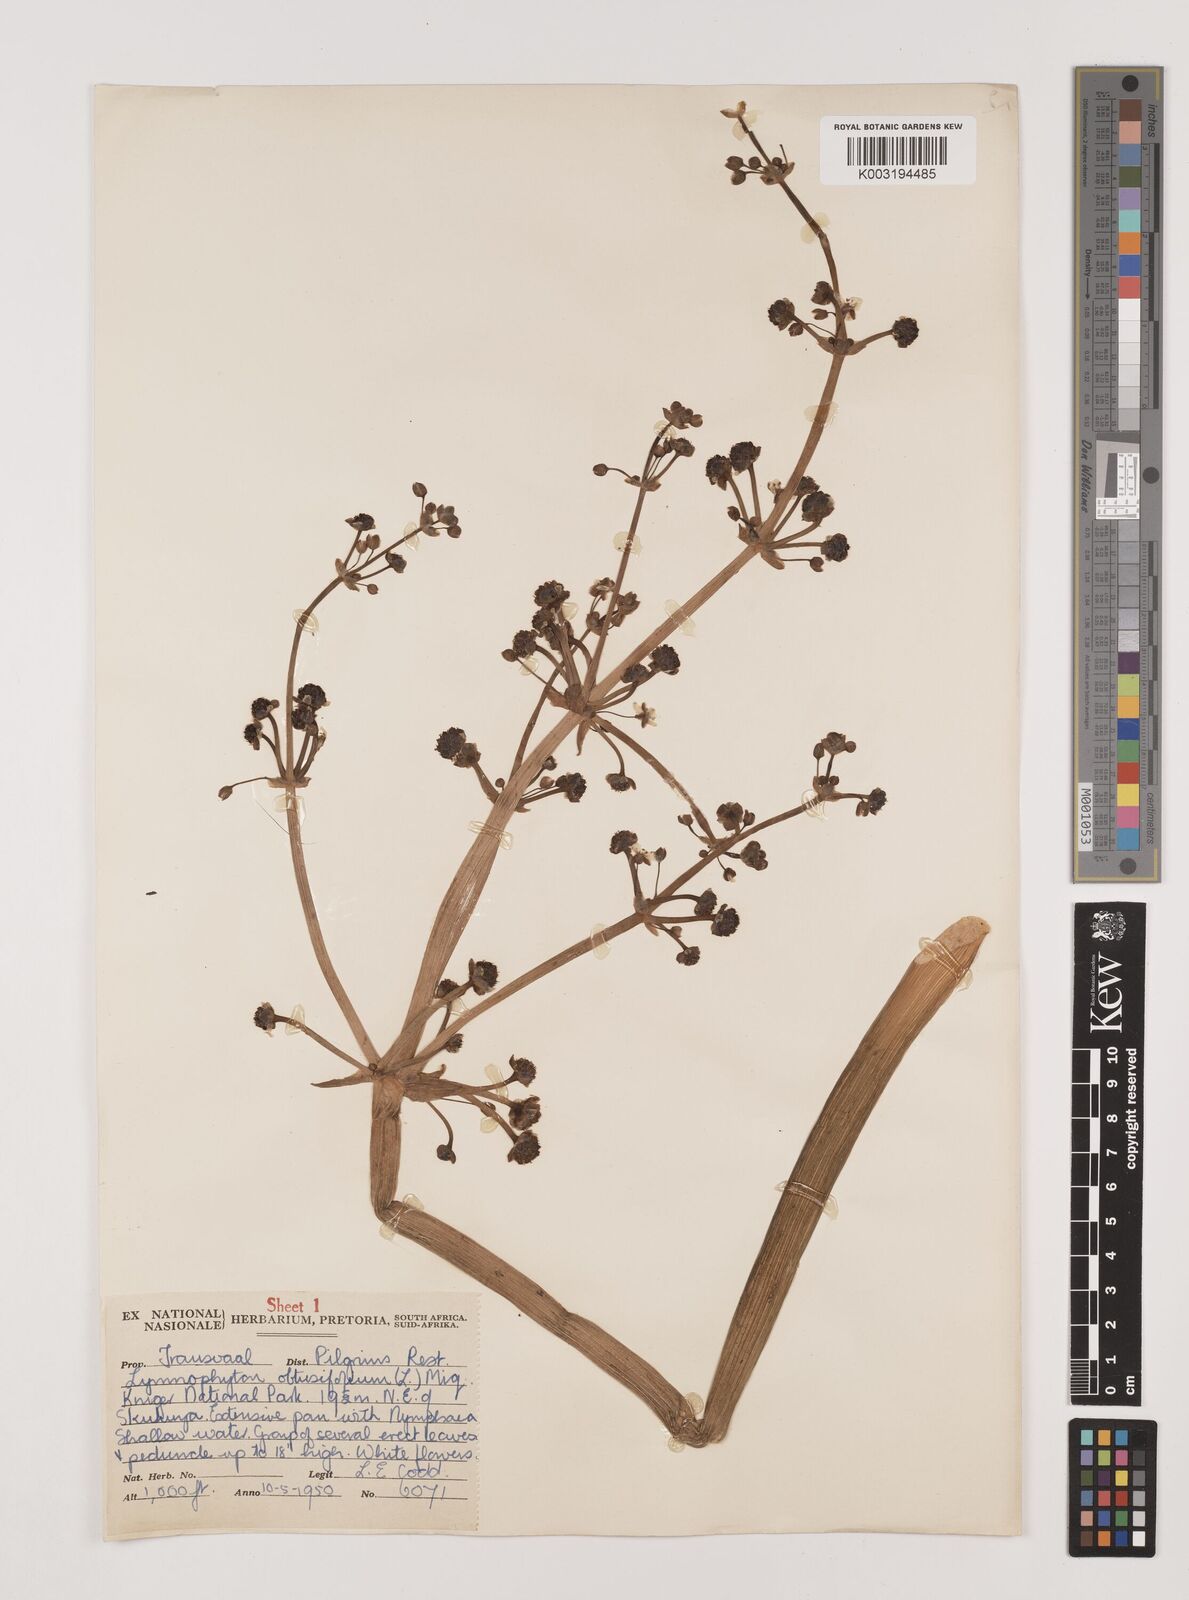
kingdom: Plantae
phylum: Tracheophyta
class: Liliopsida
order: Alismatales
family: Alismataceae
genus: Limnophyton
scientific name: Limnophyton obtusifolium
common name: Arrow head
